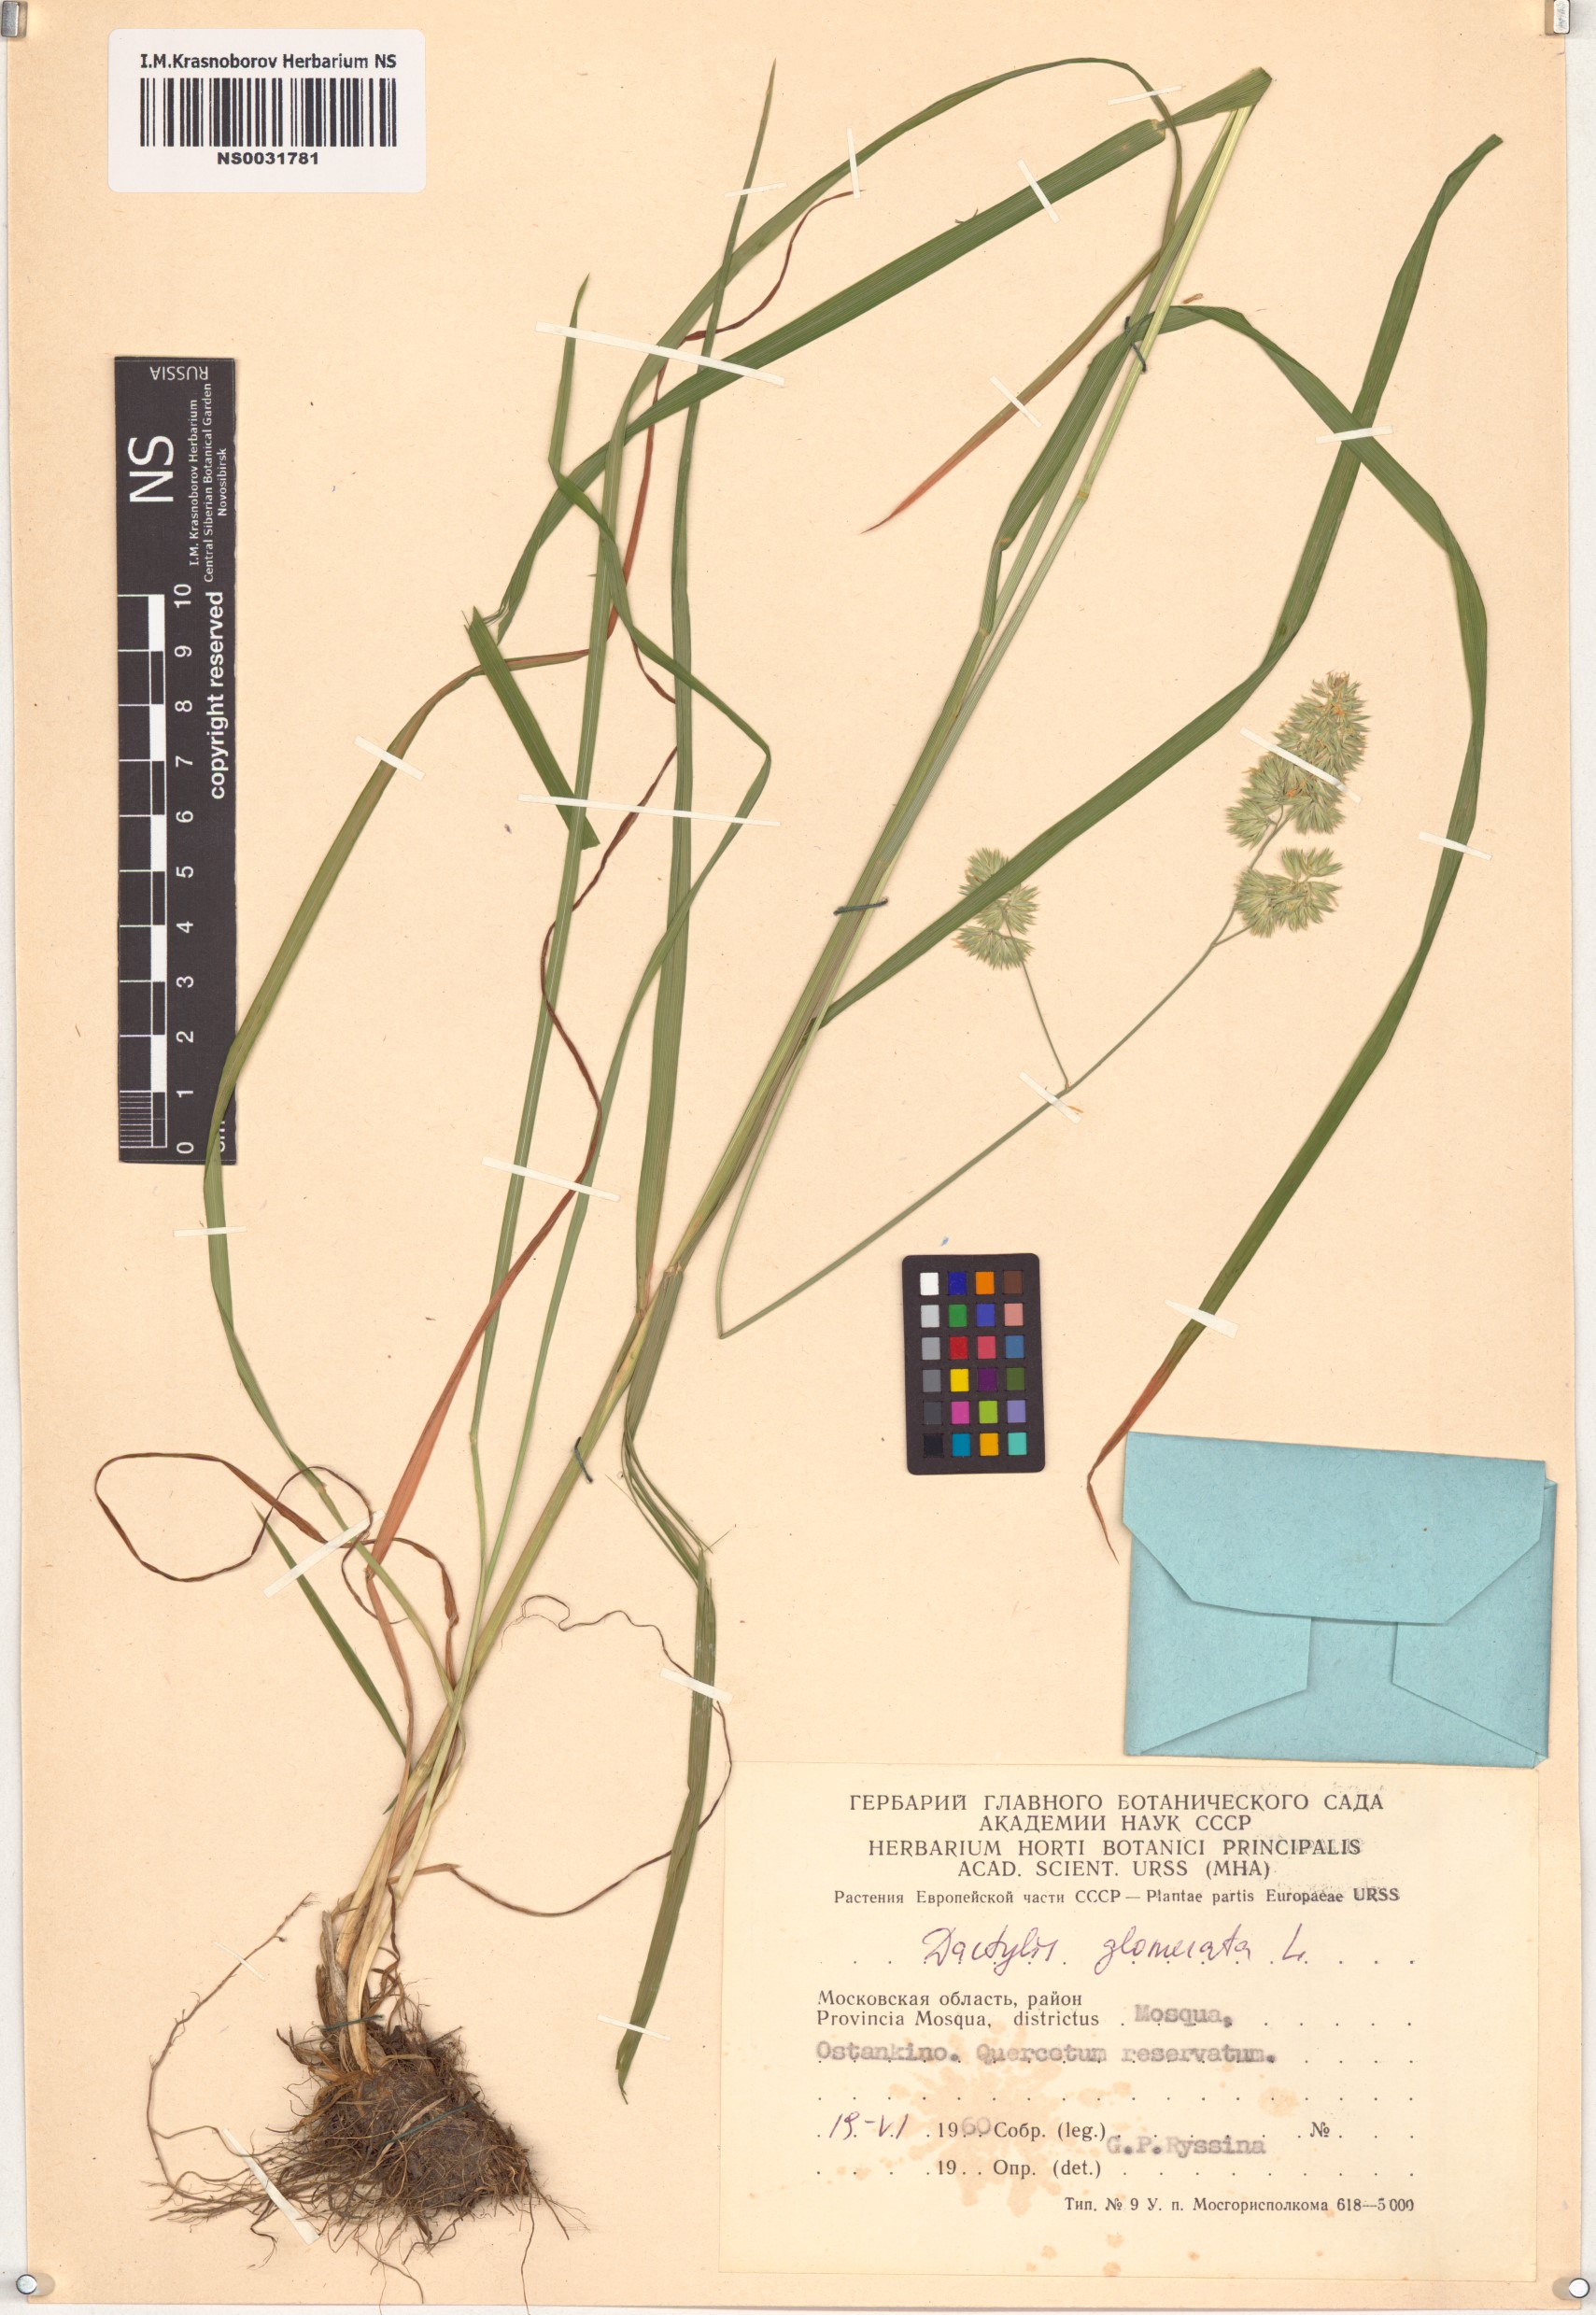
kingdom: Plantae
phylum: Tracheophyta
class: Liliopsida
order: Poales
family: Poaceae
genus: Dactylis
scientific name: Dactylis glomerata
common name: Orchardgrass
